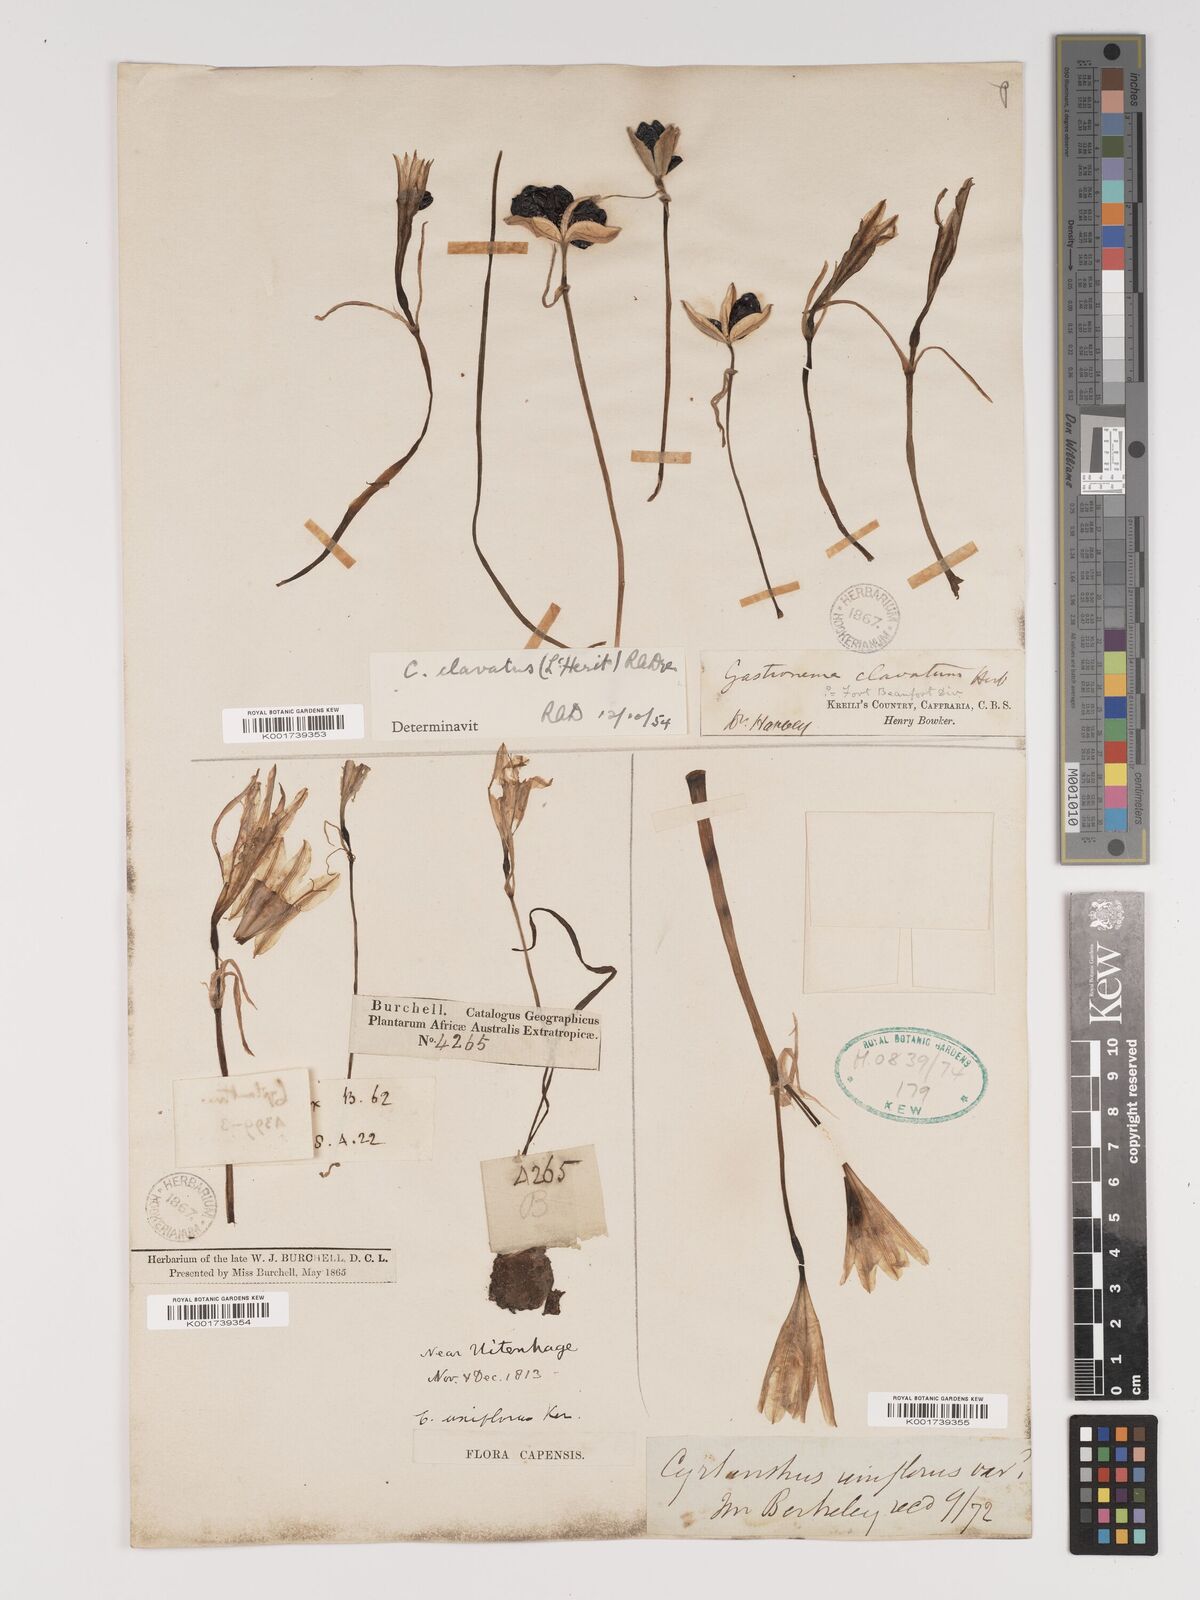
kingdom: Plantae
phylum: Tracheophyta
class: Liliopsida
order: Asparagales
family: Amaryllidaceae
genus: Cyrtanthus
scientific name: Cyrtanthus clavatus
